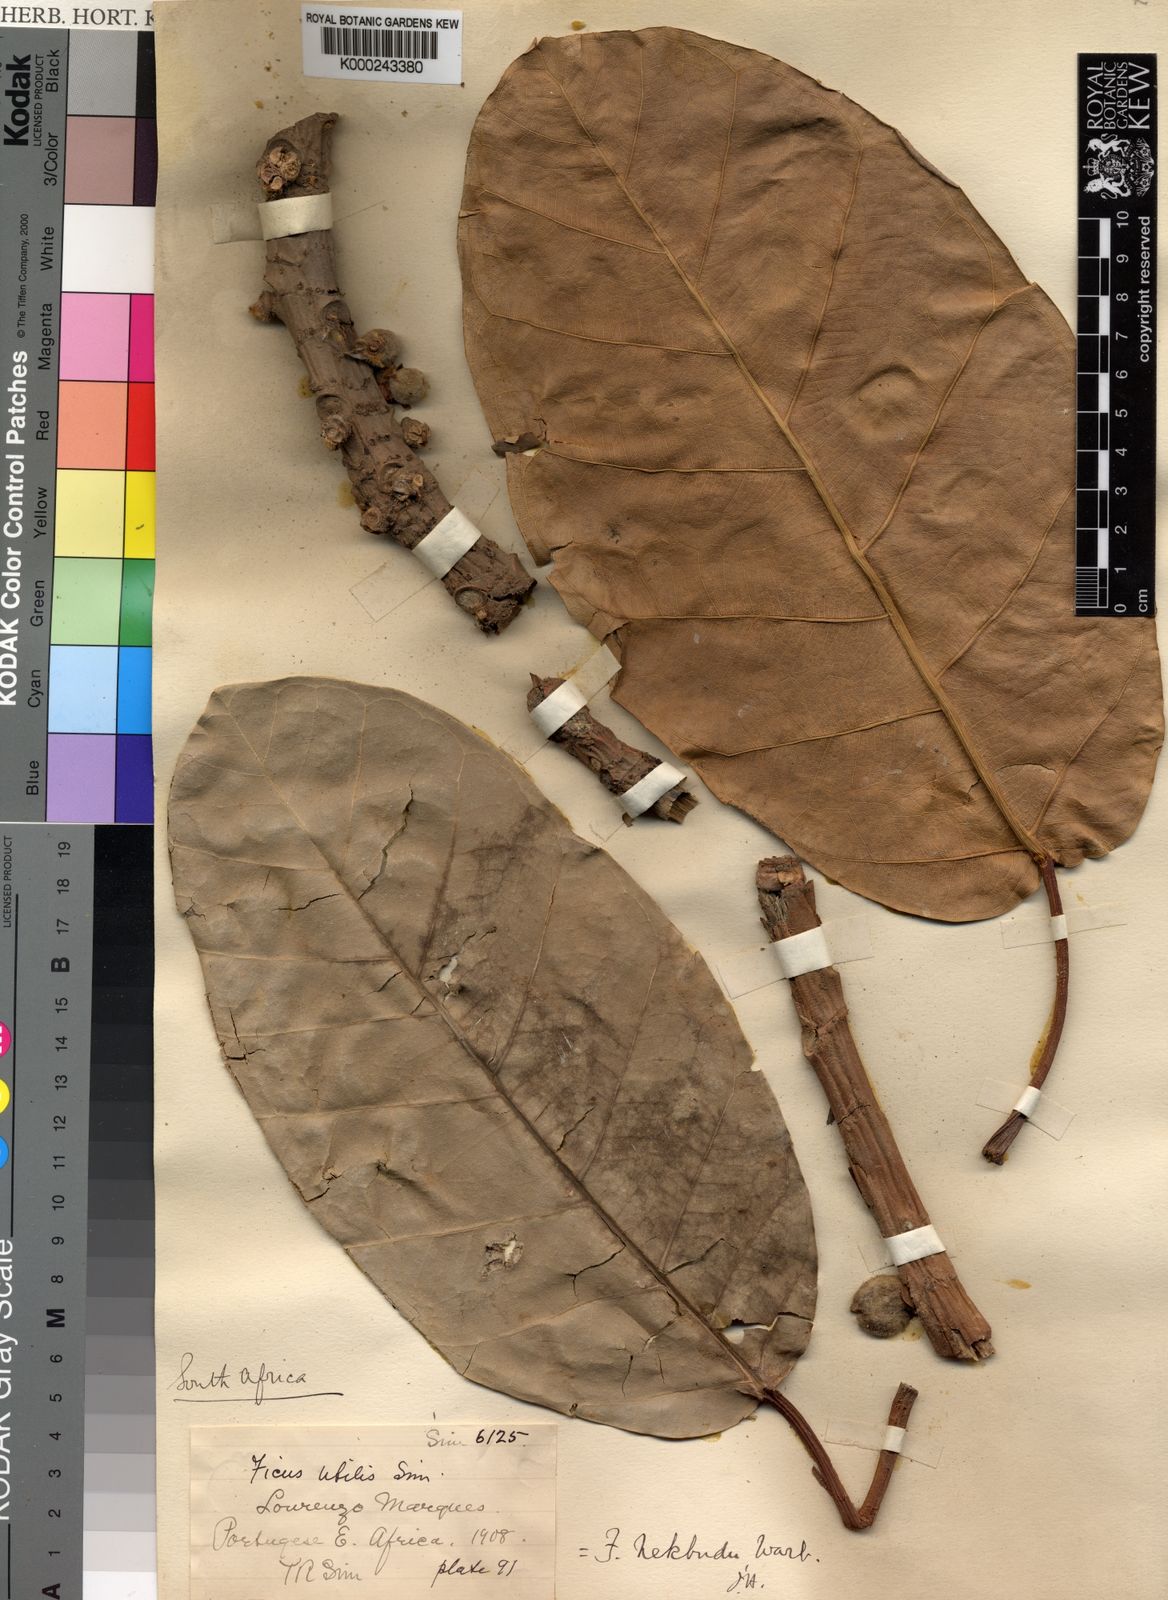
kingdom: Plantae
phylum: Tracheophyta
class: Magnoliopsida
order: Rosales
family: Moraceae
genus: Ficus
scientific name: Ficus lutea
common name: Giant-leaved fig
